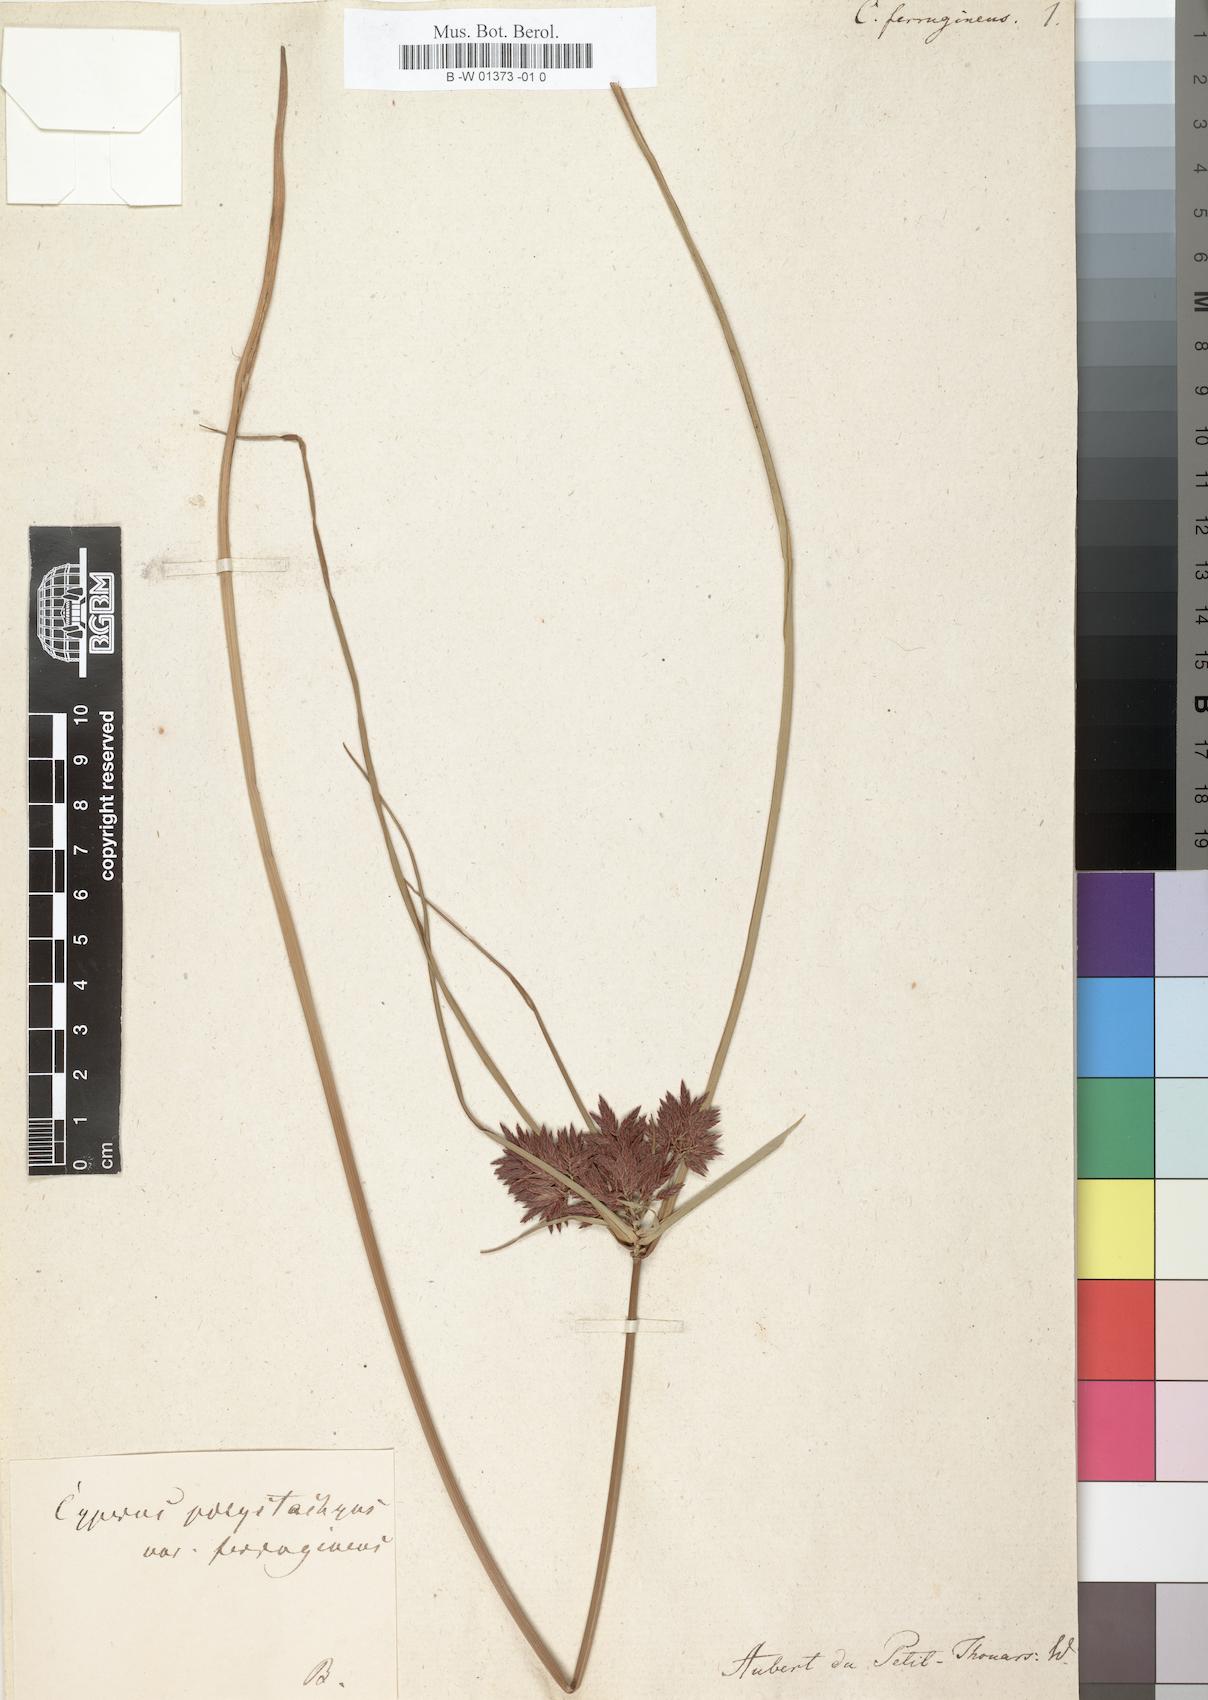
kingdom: Plantae
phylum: Tracheophyta
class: Liliopsida
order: Poales
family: Cyperaceae
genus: Cyperus
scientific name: Cyperus ferrugineus
